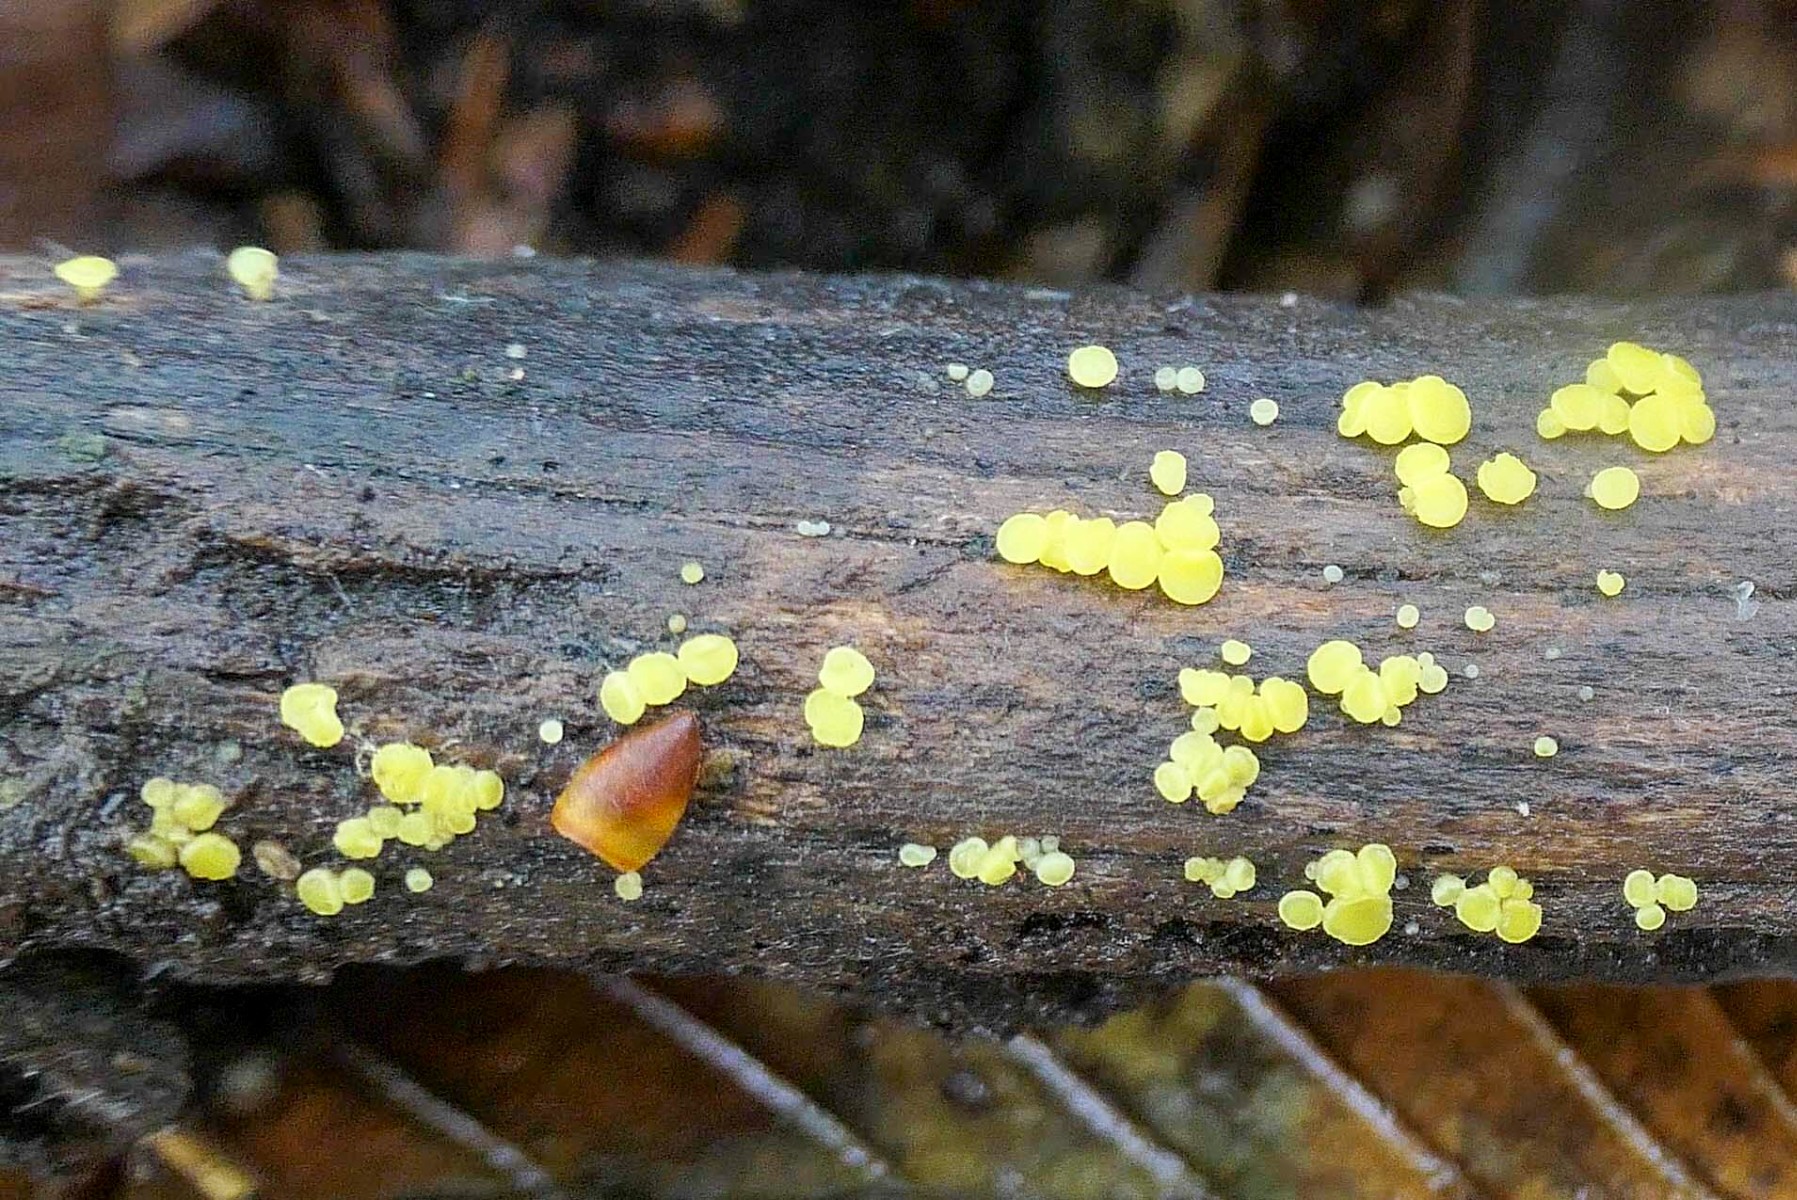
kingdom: Fungi
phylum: Ascomycota
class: Leotiomycetes
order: Helotiales
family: Pezizellaceae
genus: Calycina
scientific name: Calycina citrina
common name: almindelig gulskive
